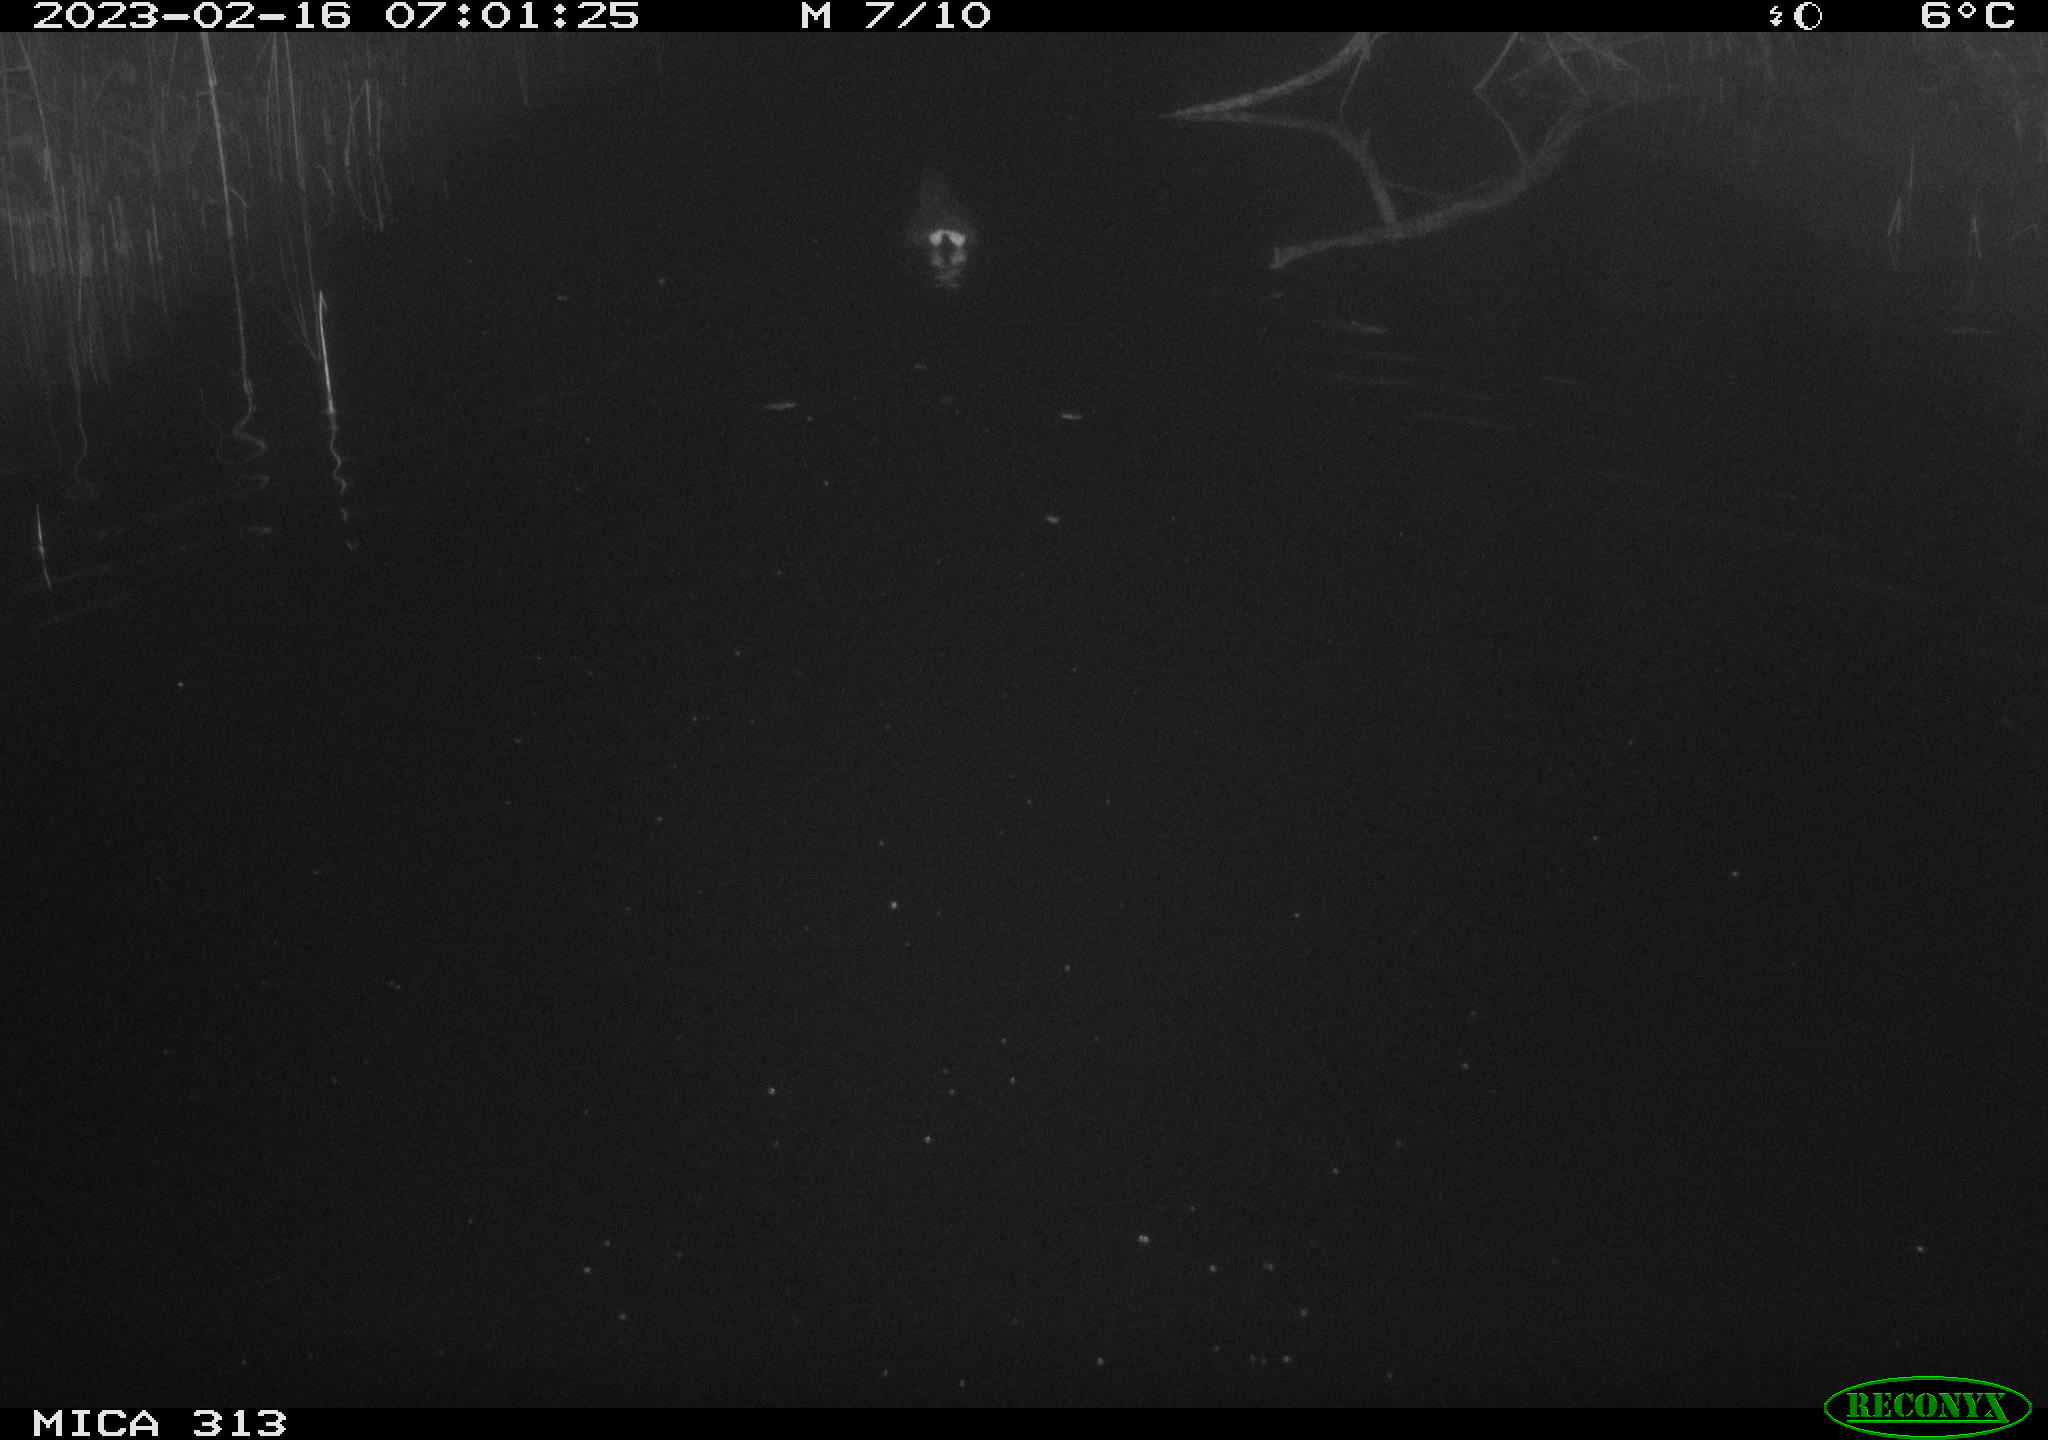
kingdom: Animalia
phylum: Chordata
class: Aves
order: Gruiformes
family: Rallidae
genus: Gallinula
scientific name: Gallinula chloropus
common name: Common moorhen
